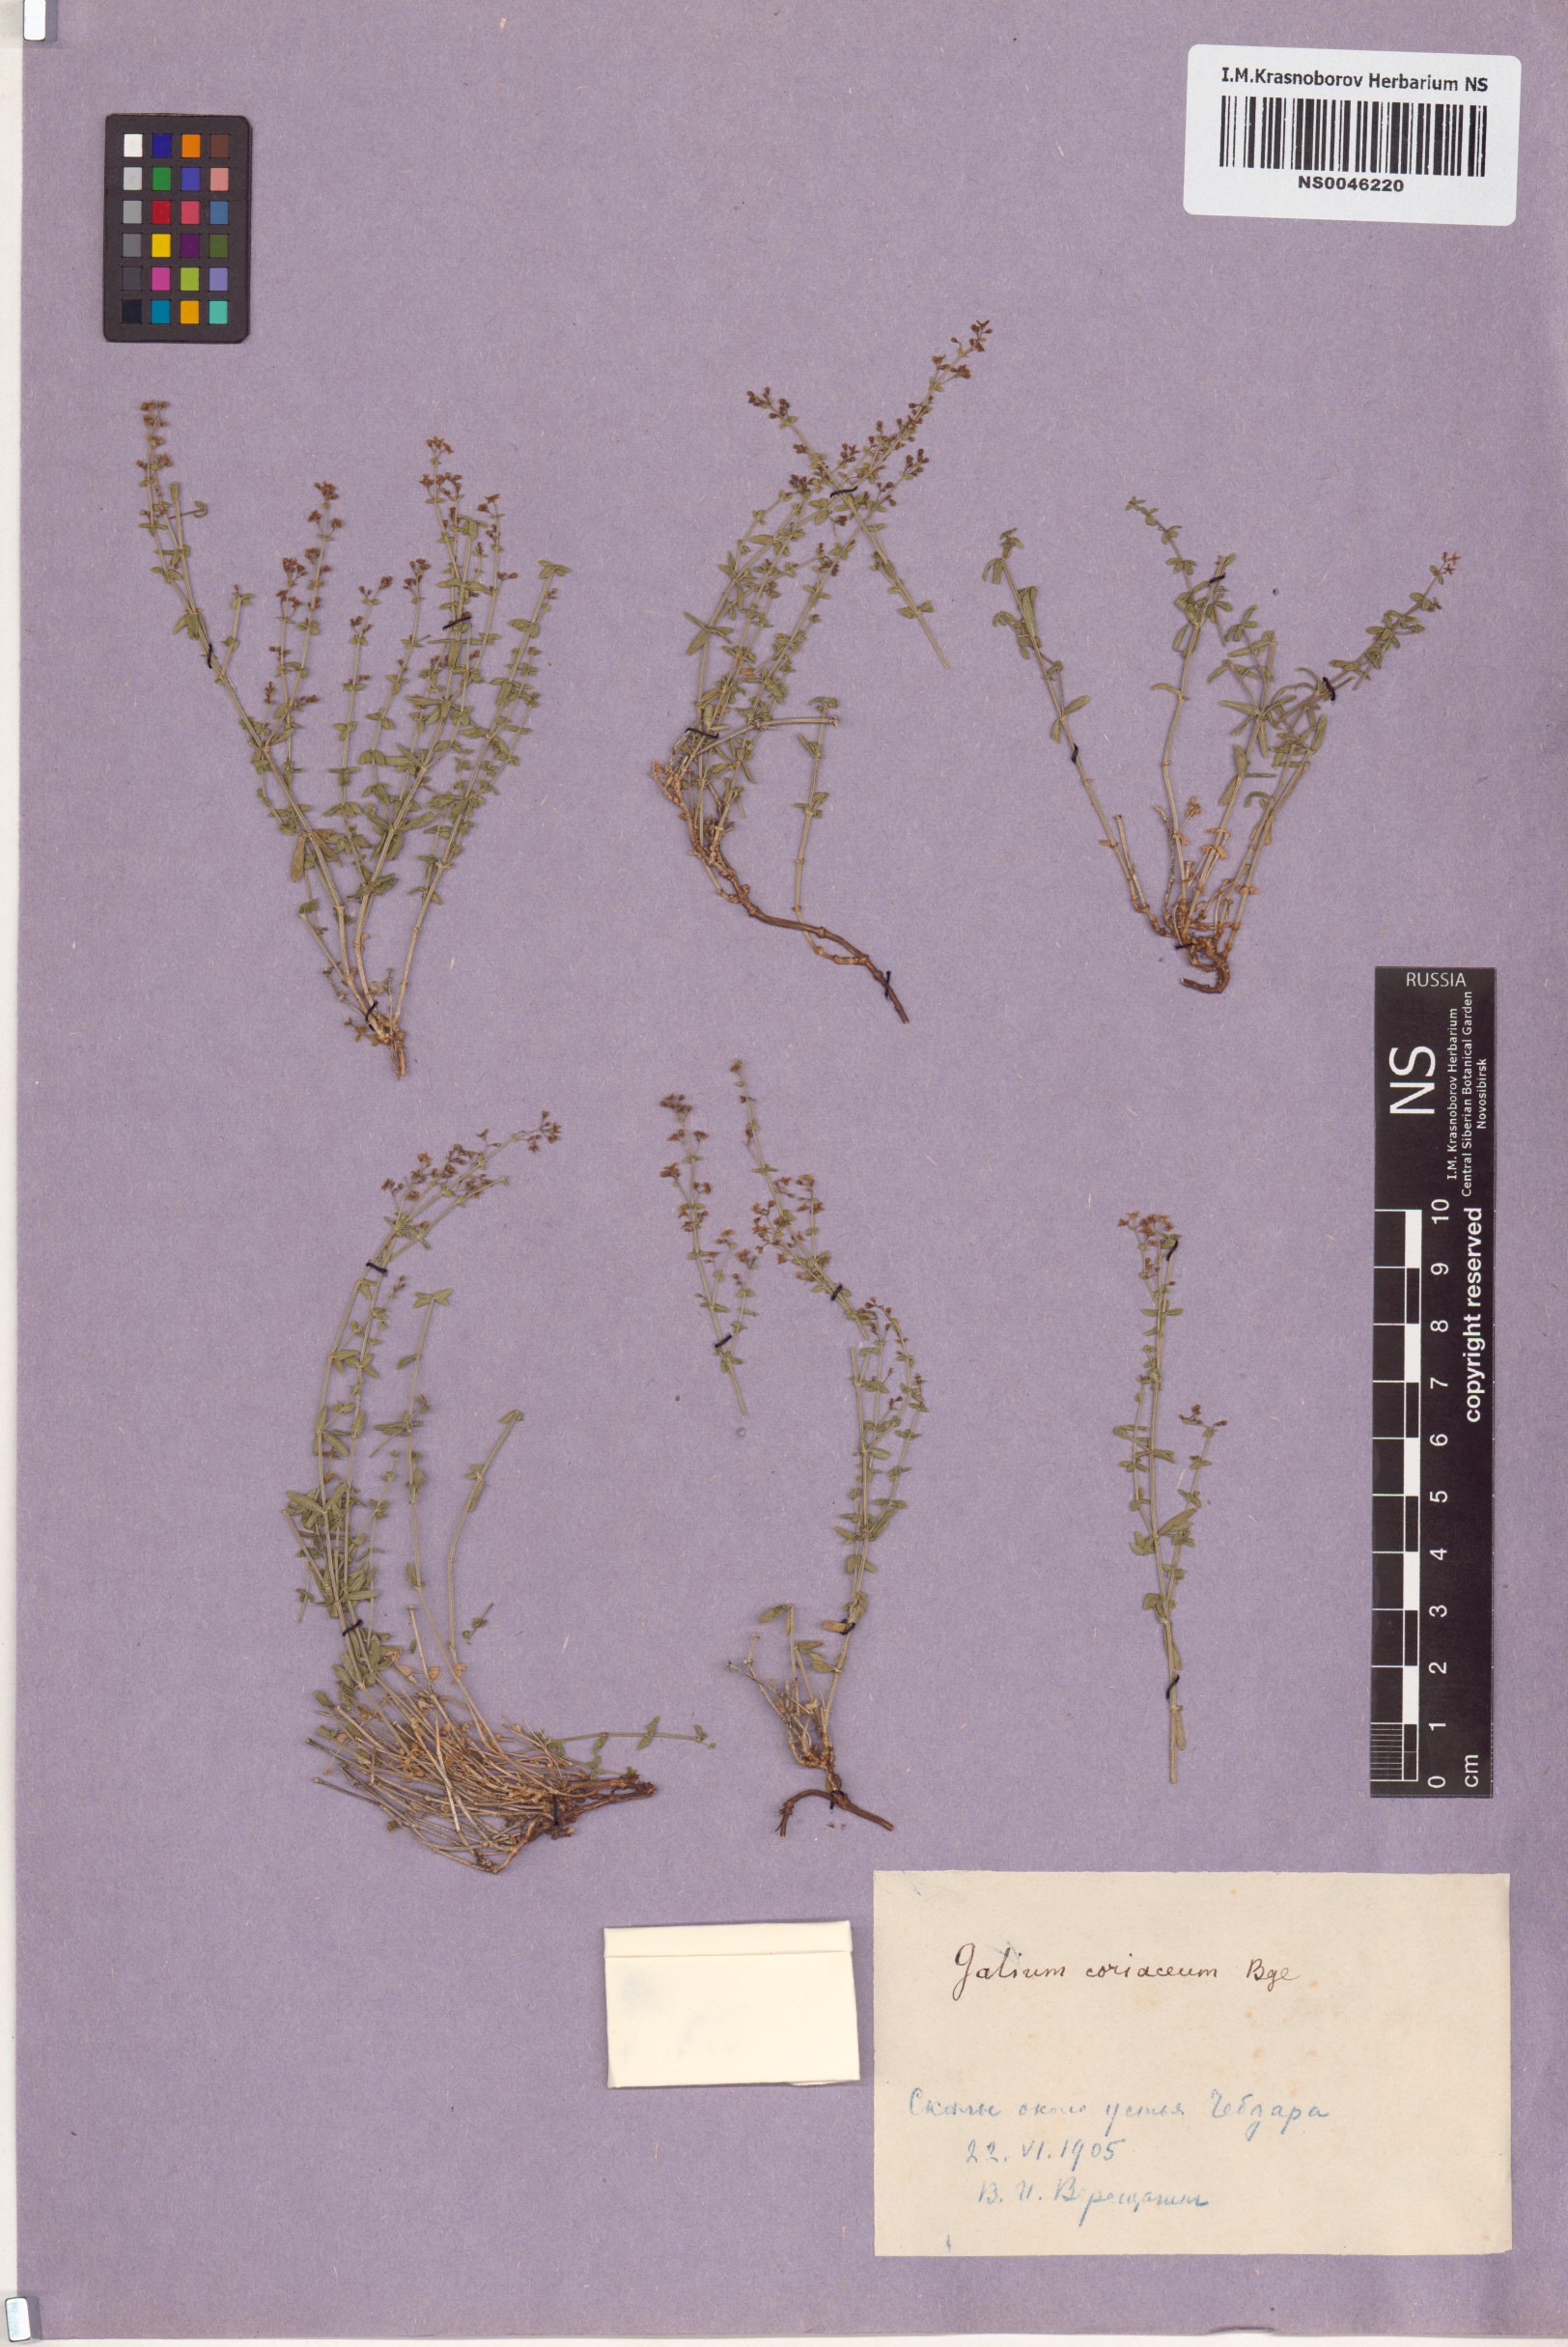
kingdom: Plantae
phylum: Tracheophyta
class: Magnoliopsida
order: Gentianales
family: Rubiaceae
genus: Galium
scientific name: Galium coriaceum
